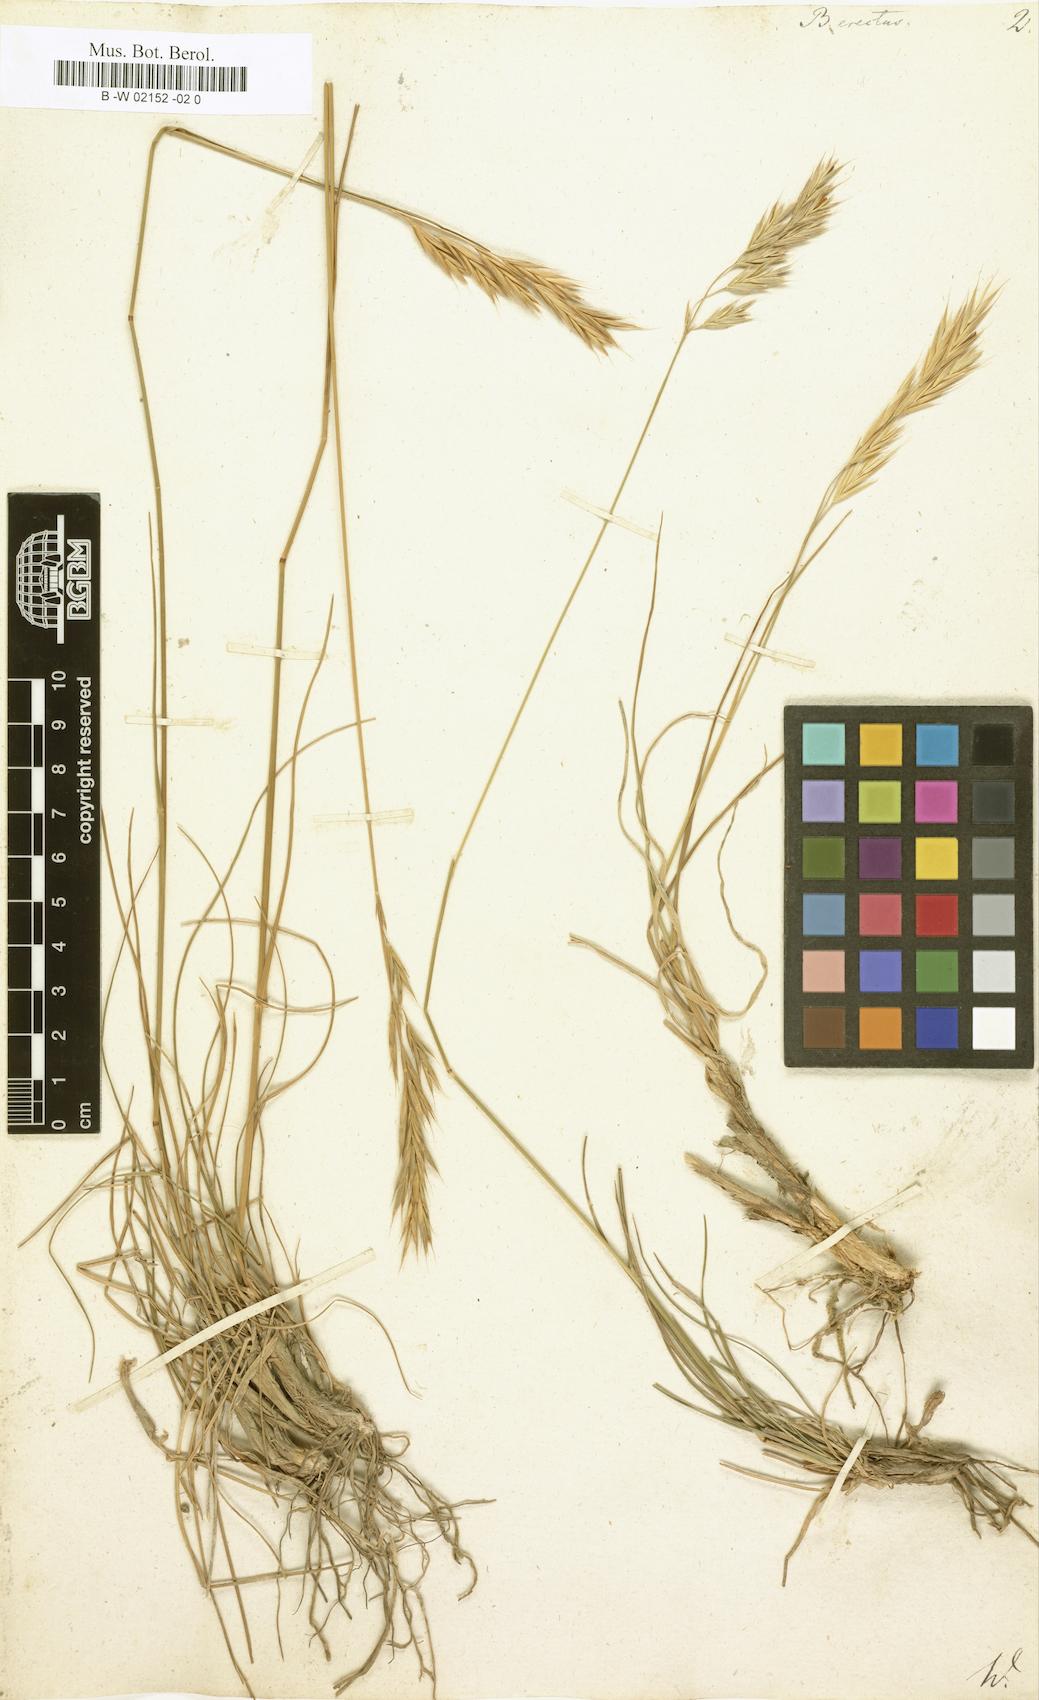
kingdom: Plantae
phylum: Tracheophyta
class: Liliopsida
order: Poales
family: Poaceae
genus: Bromus
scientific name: Bromus erectus
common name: Erect brome
